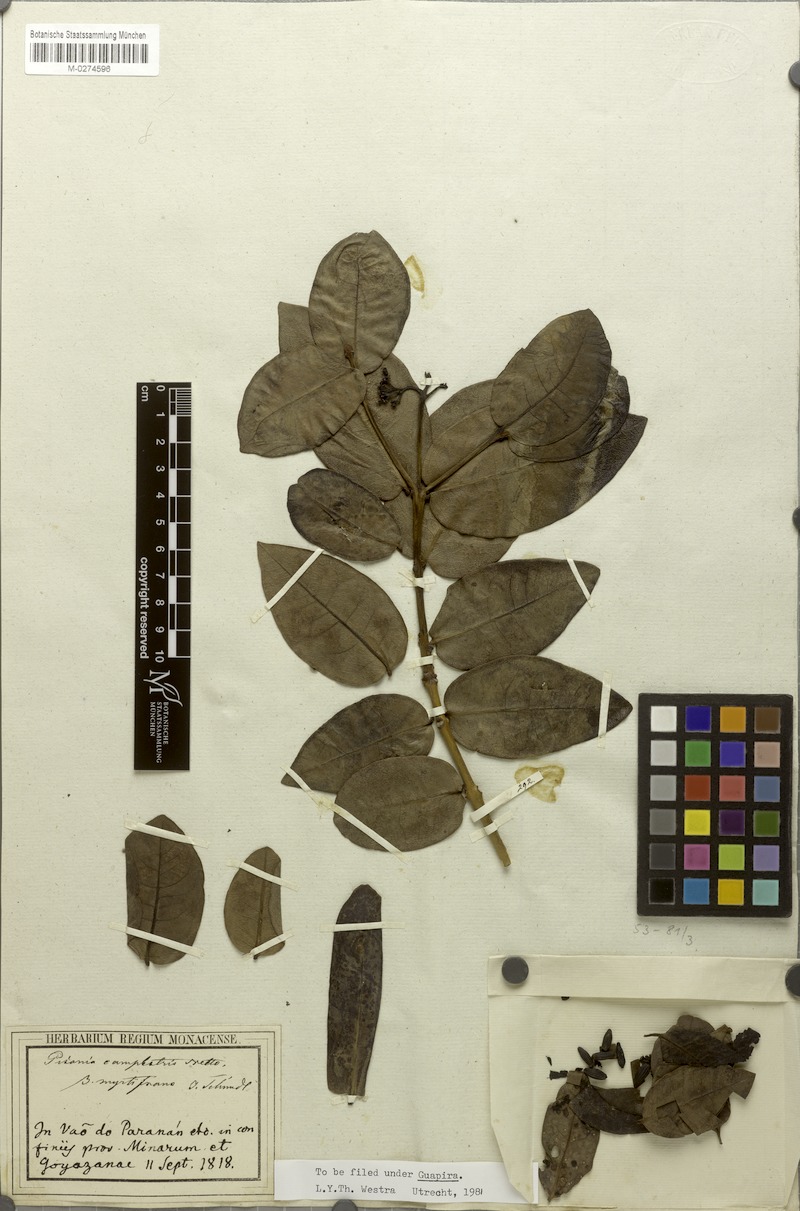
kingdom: Plantae
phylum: Tracheophyta
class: Magnoliopsida
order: Caryophyllales
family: Nyctaginaceae
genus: Guapira
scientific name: Guapira campestris
